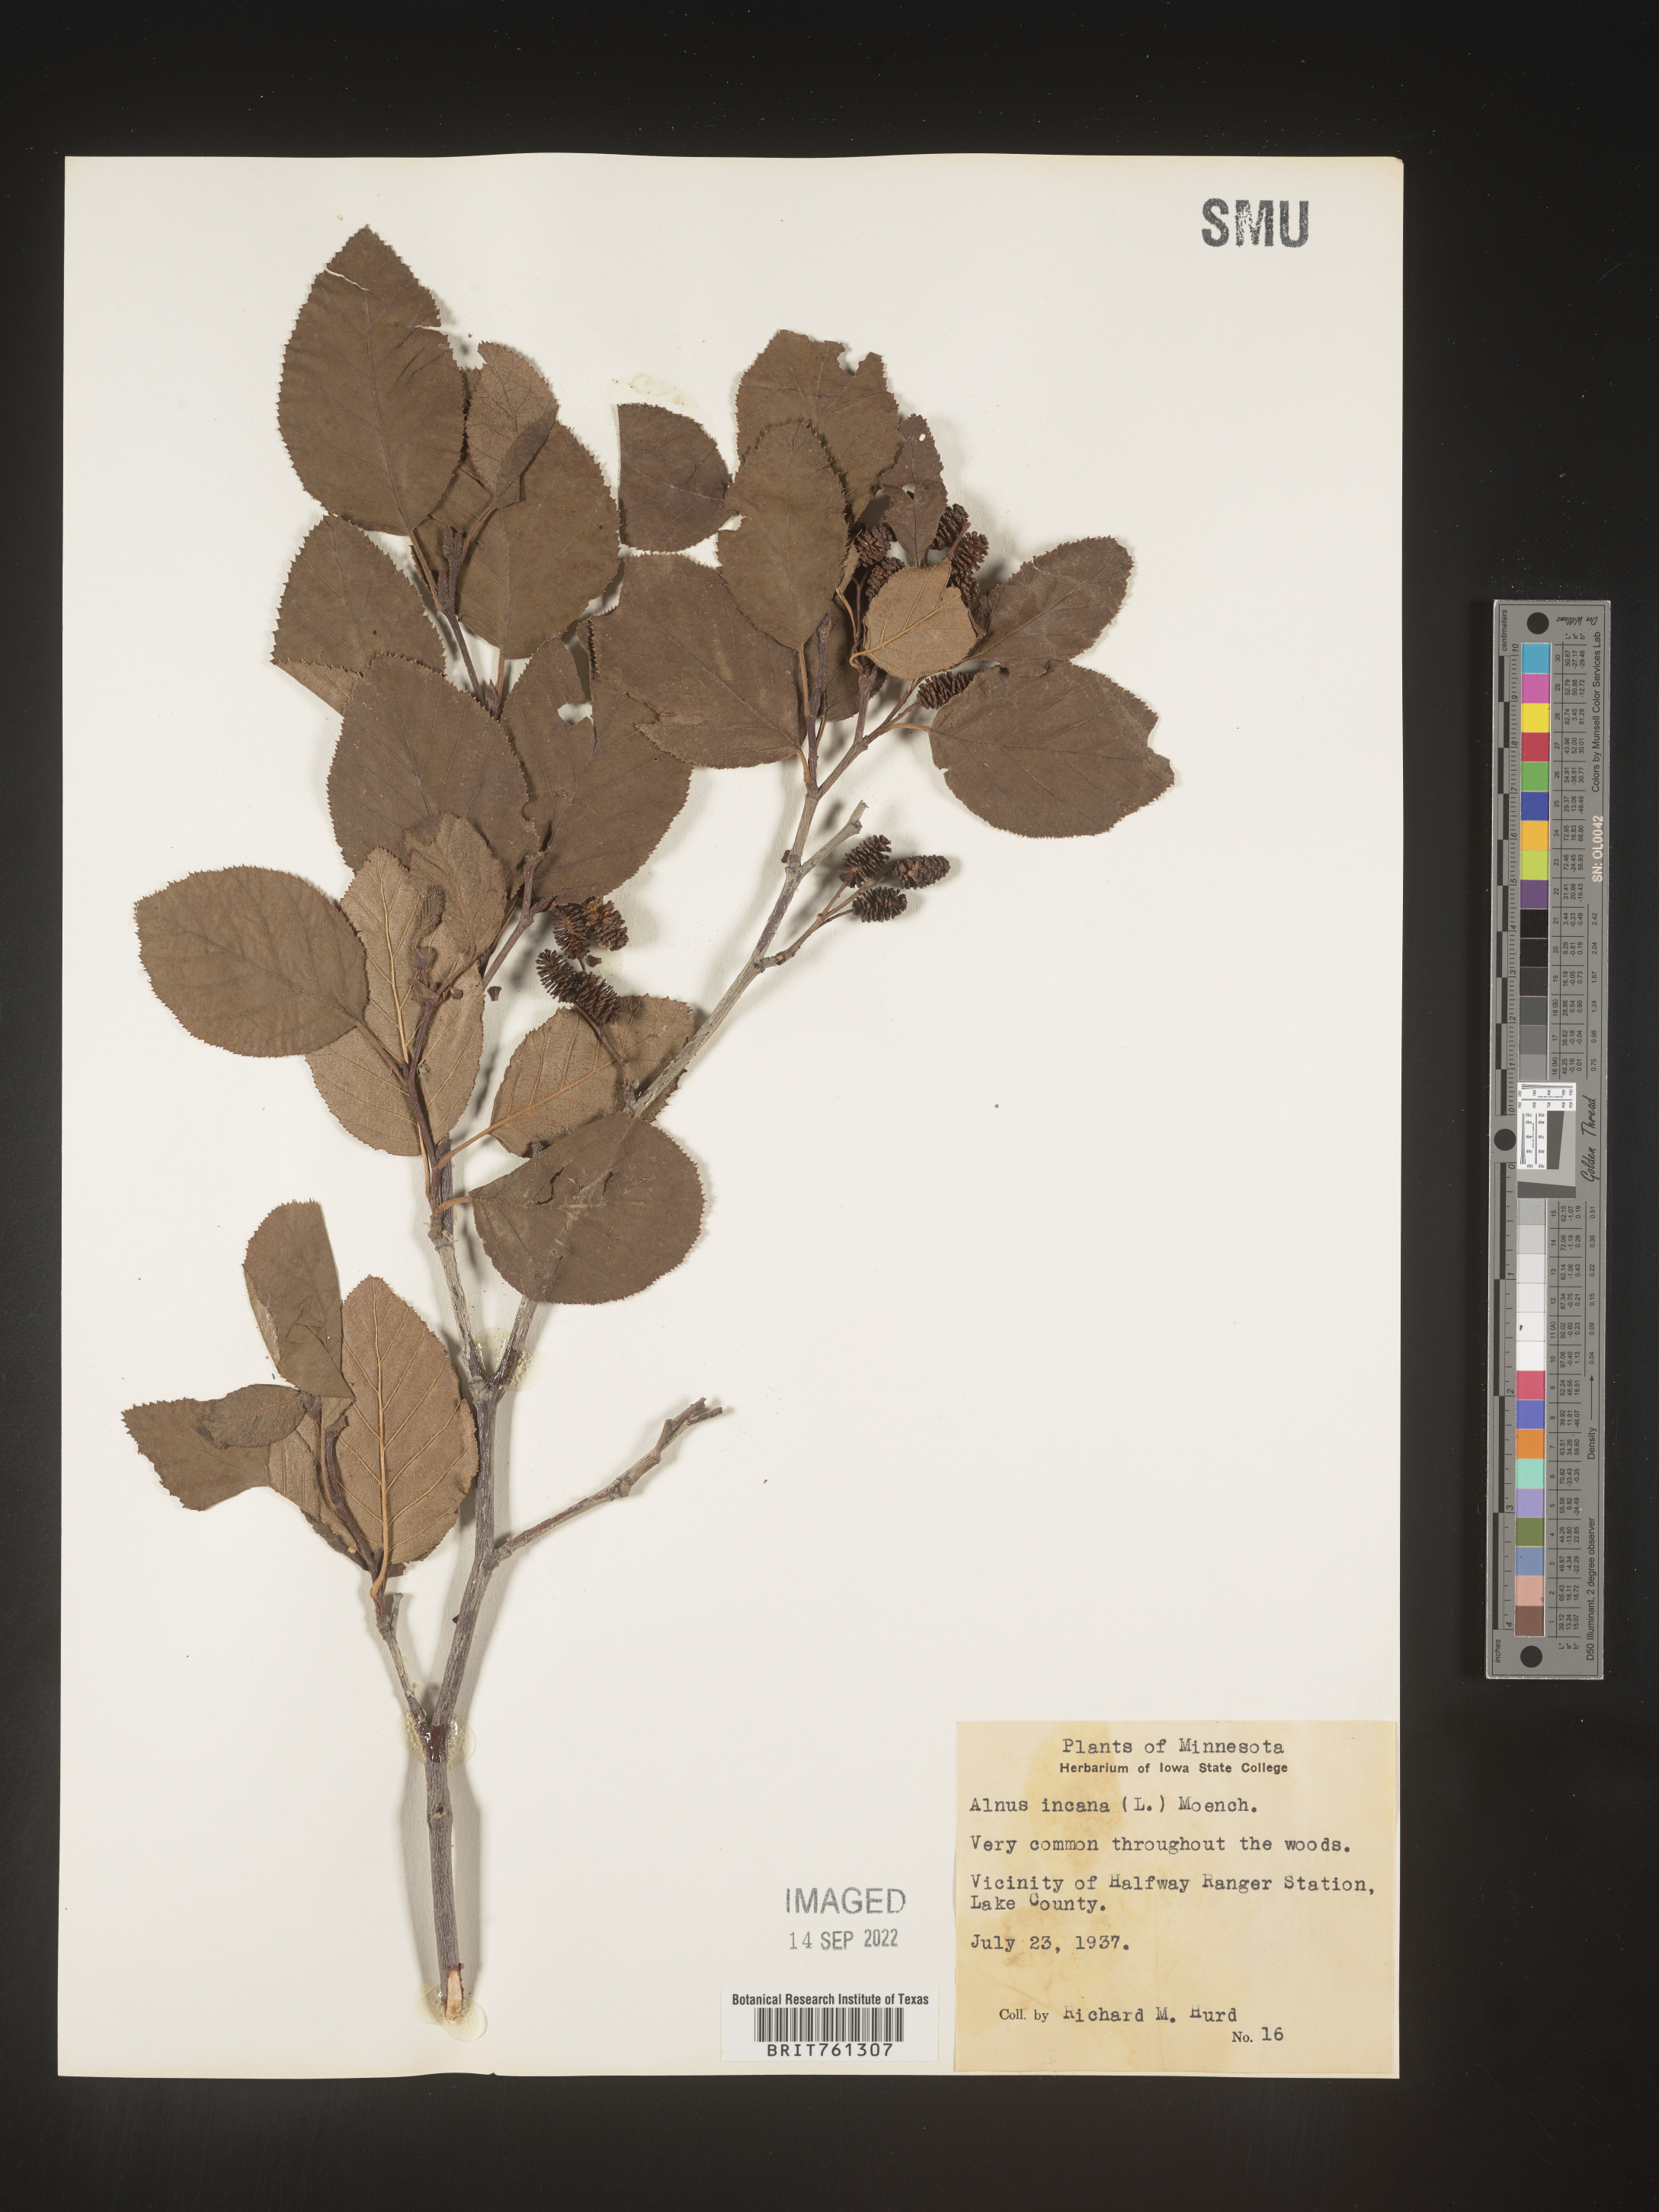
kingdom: Plantae
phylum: Tracheophyta
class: Magnoliopsida
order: Fagales
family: Betulaceae
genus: Alnus
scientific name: Alnus incana
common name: Grey alder
